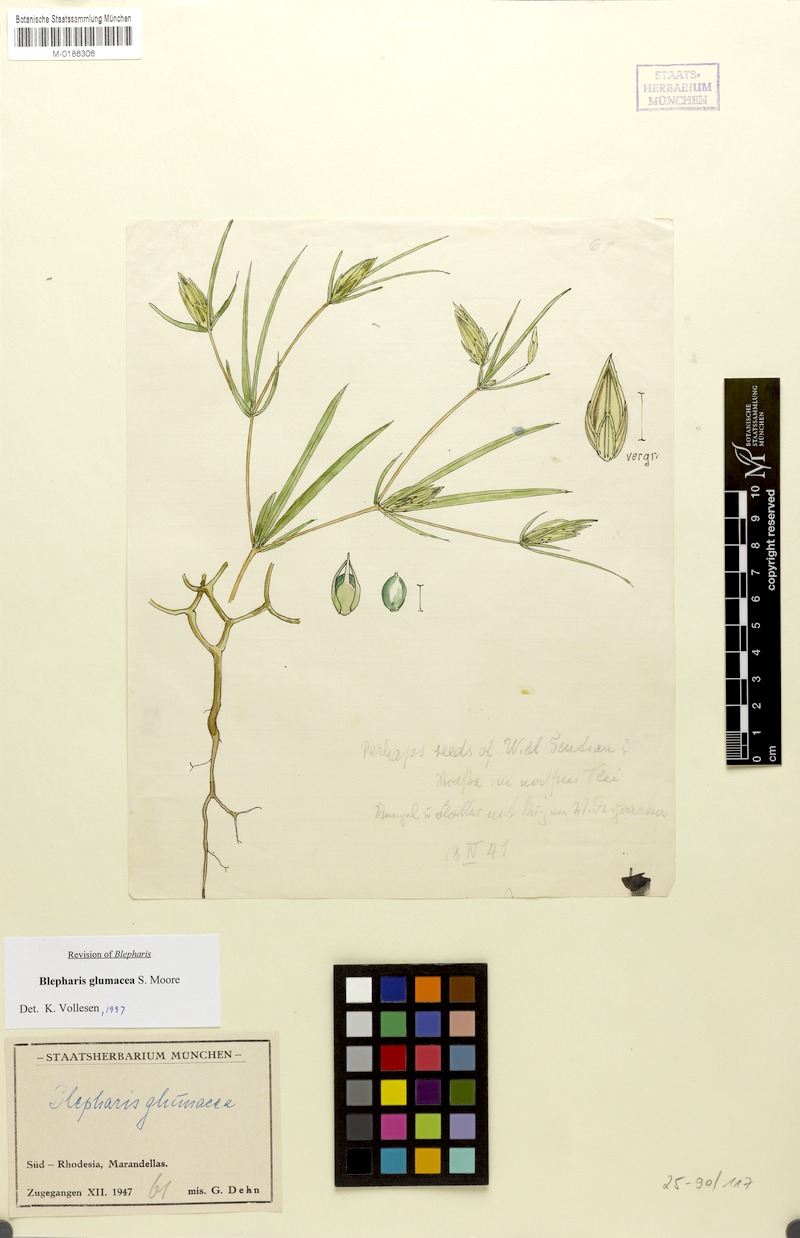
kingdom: Plantae
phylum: Tracheophyta
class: Magnoliopsida
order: Lamiales
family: Acanthaceae
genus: Blepharis
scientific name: Blepharis glumacea
